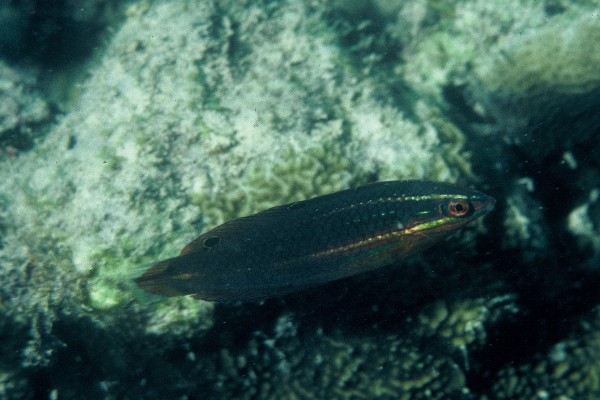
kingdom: Animalia
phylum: Chordata
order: Perciformes
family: Labridae
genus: Halichoeres
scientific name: Halichoeres biocellatus
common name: False-eyed wrasse
